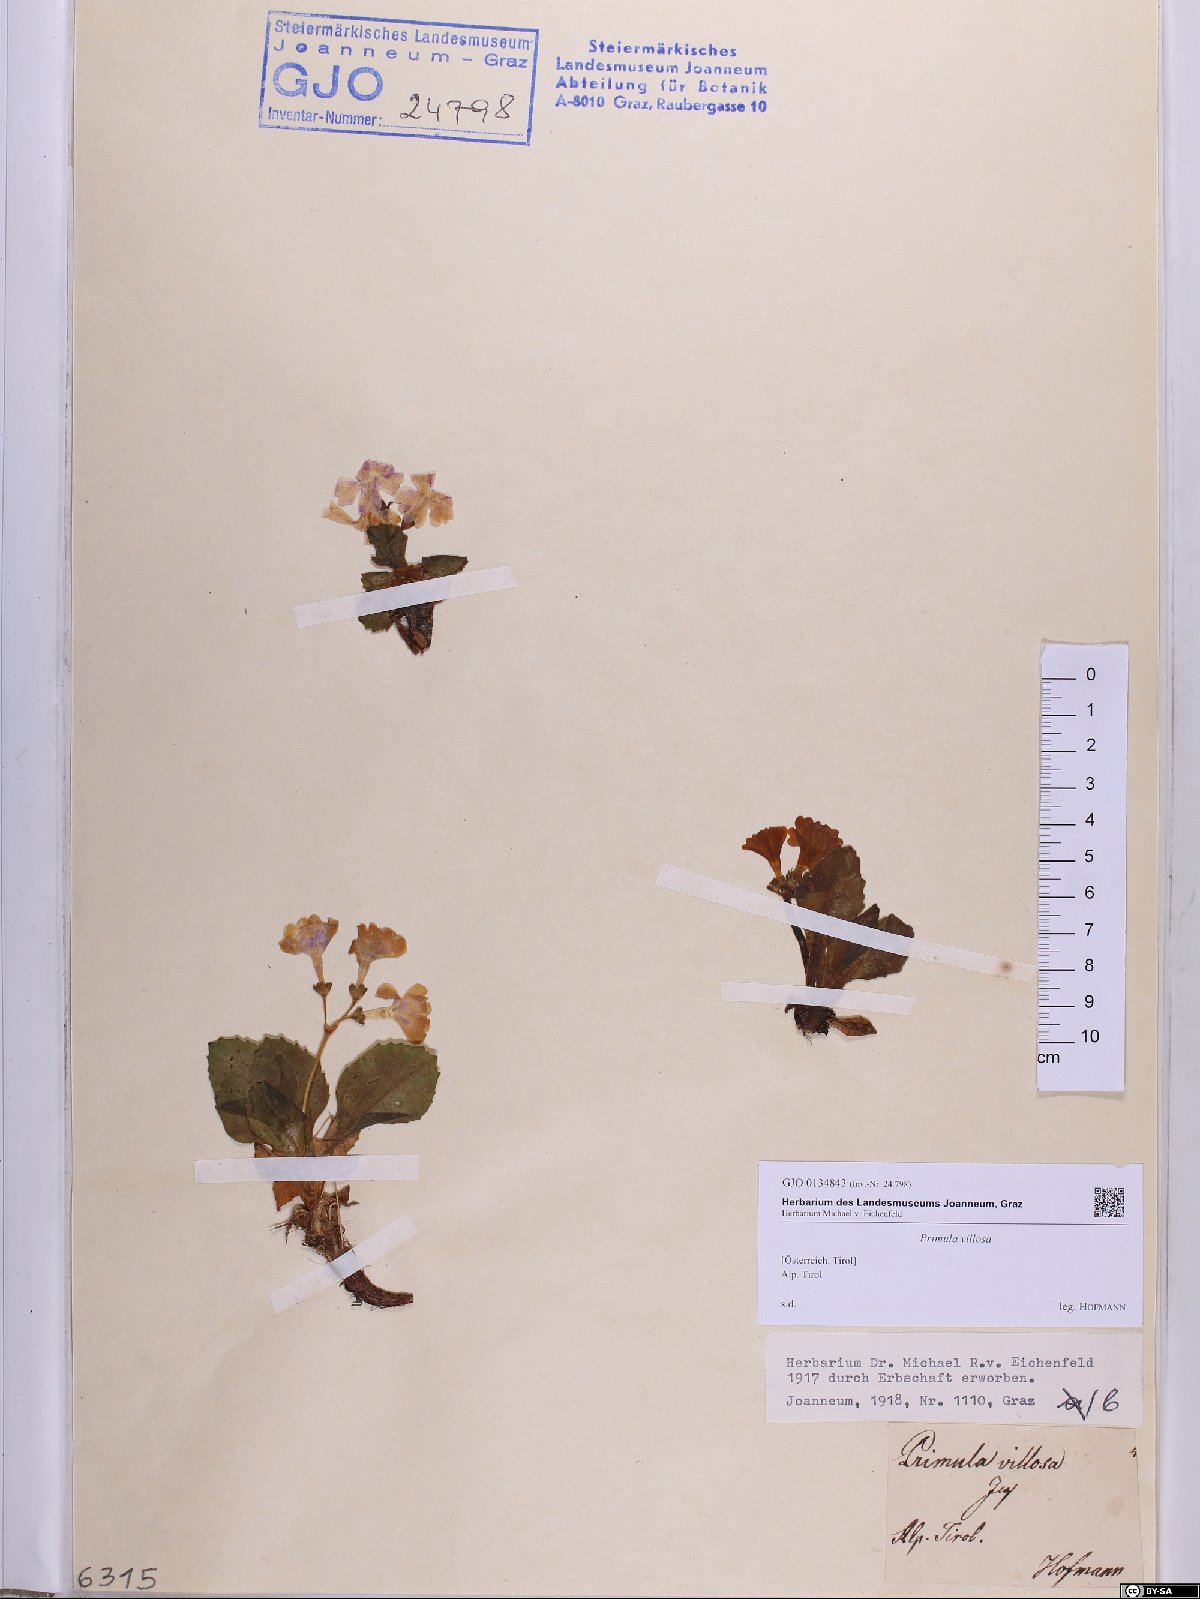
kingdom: Plantae
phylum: Tracheophyta
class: Magnoliopsida
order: Ericales
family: Primulaceae
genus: Primula
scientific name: Primula villosa
